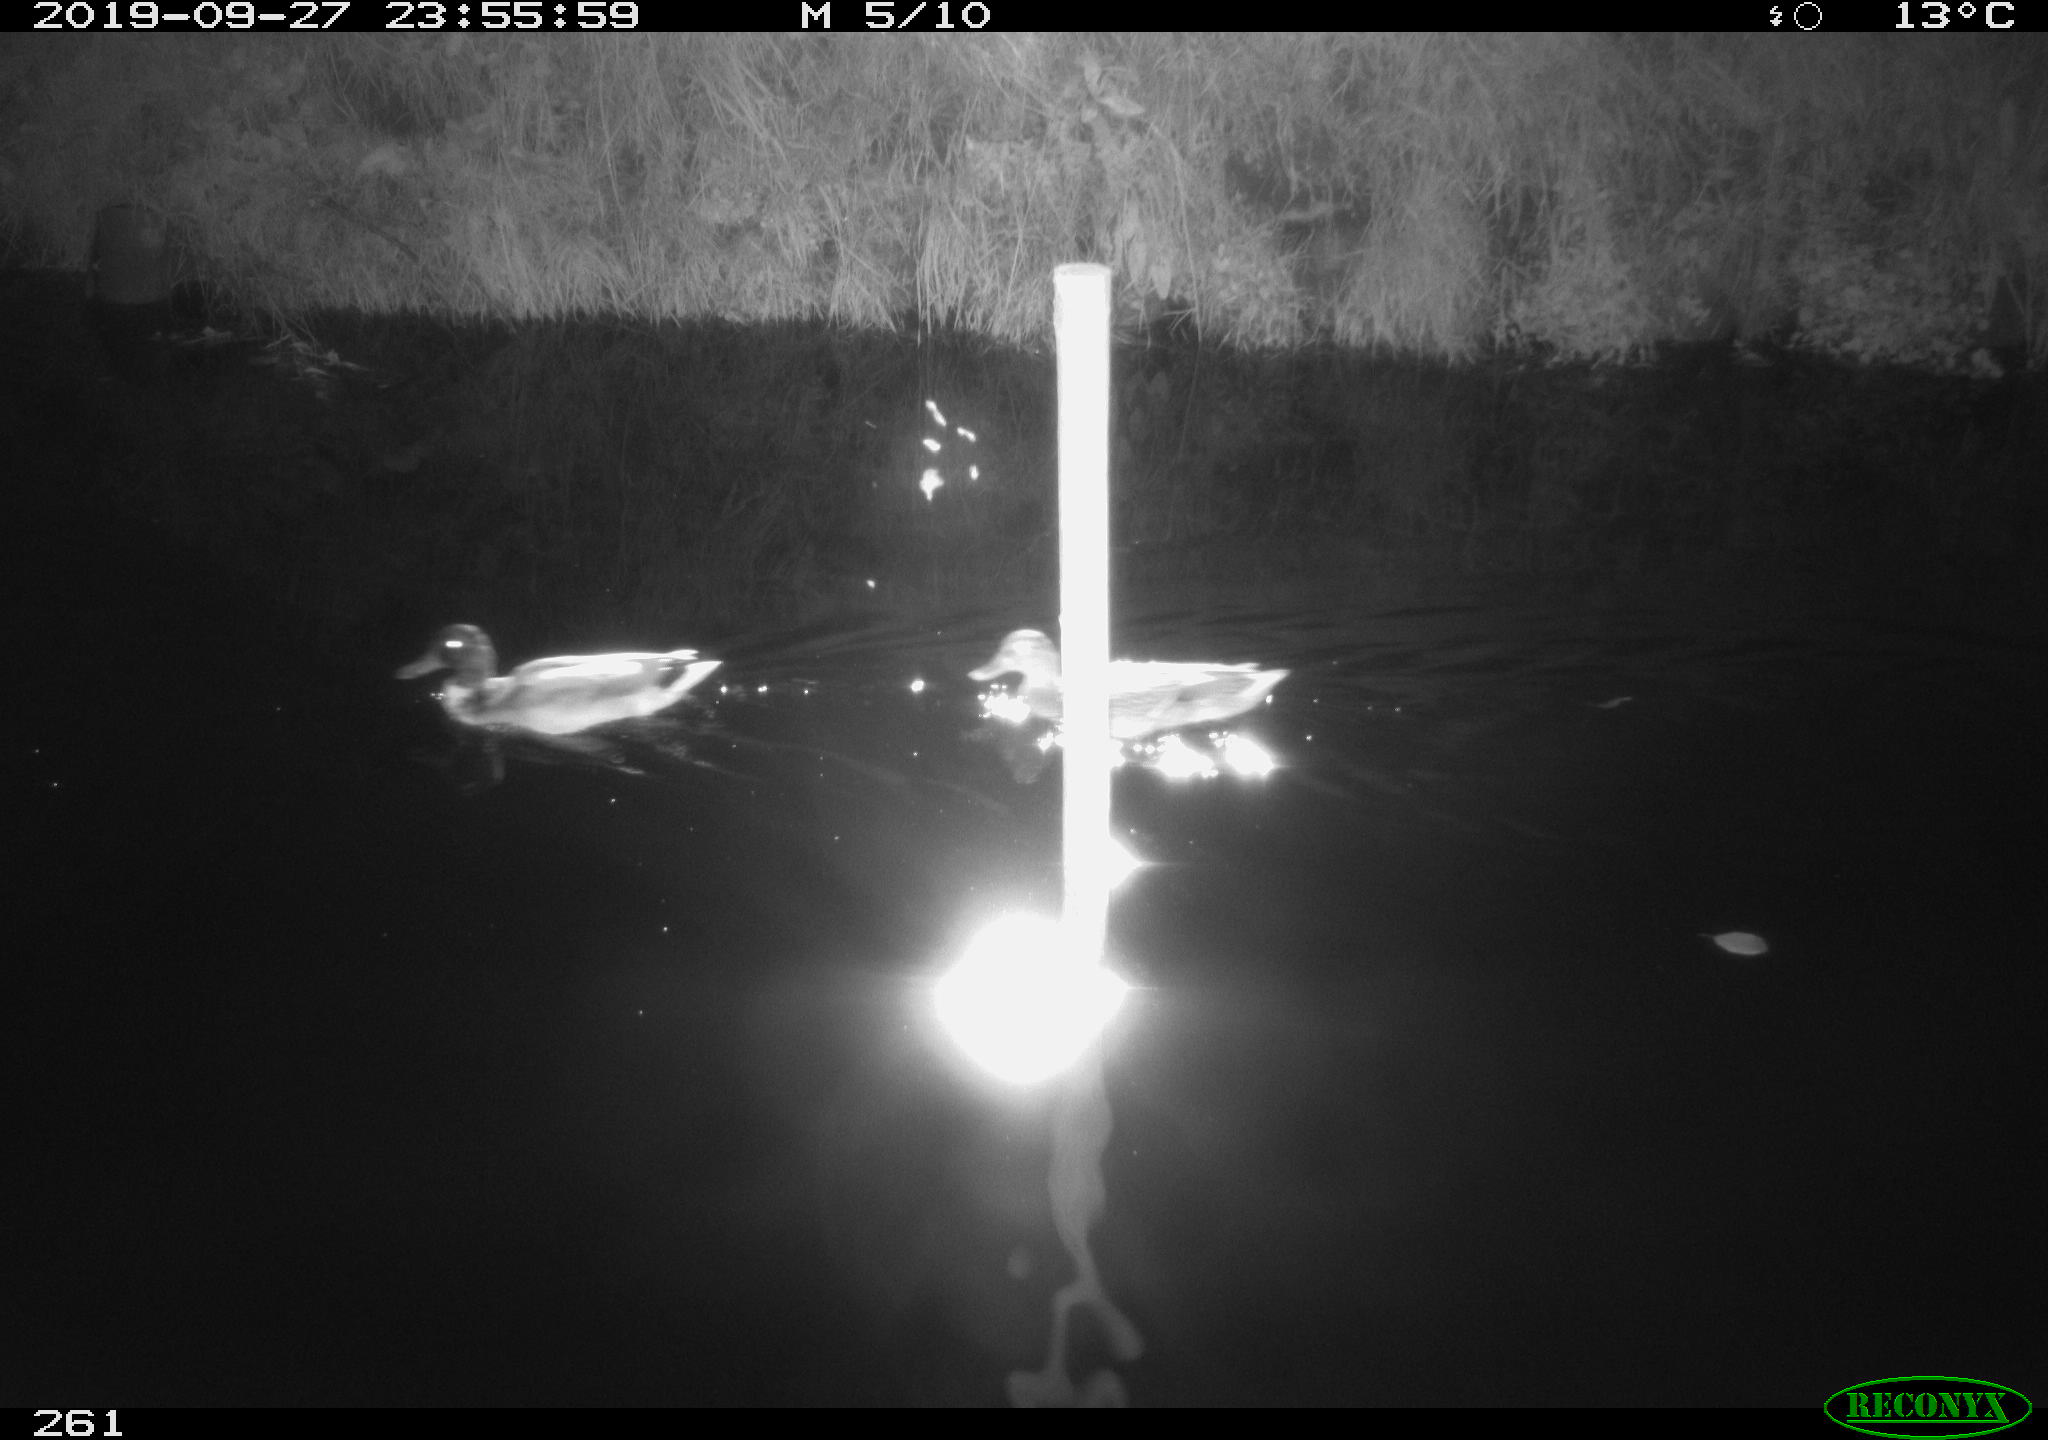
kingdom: Animalia
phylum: Chordata
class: Aves
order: Anseriformes
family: Anatidae
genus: Anas
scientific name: Anas platyrhynchos
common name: Mallard
